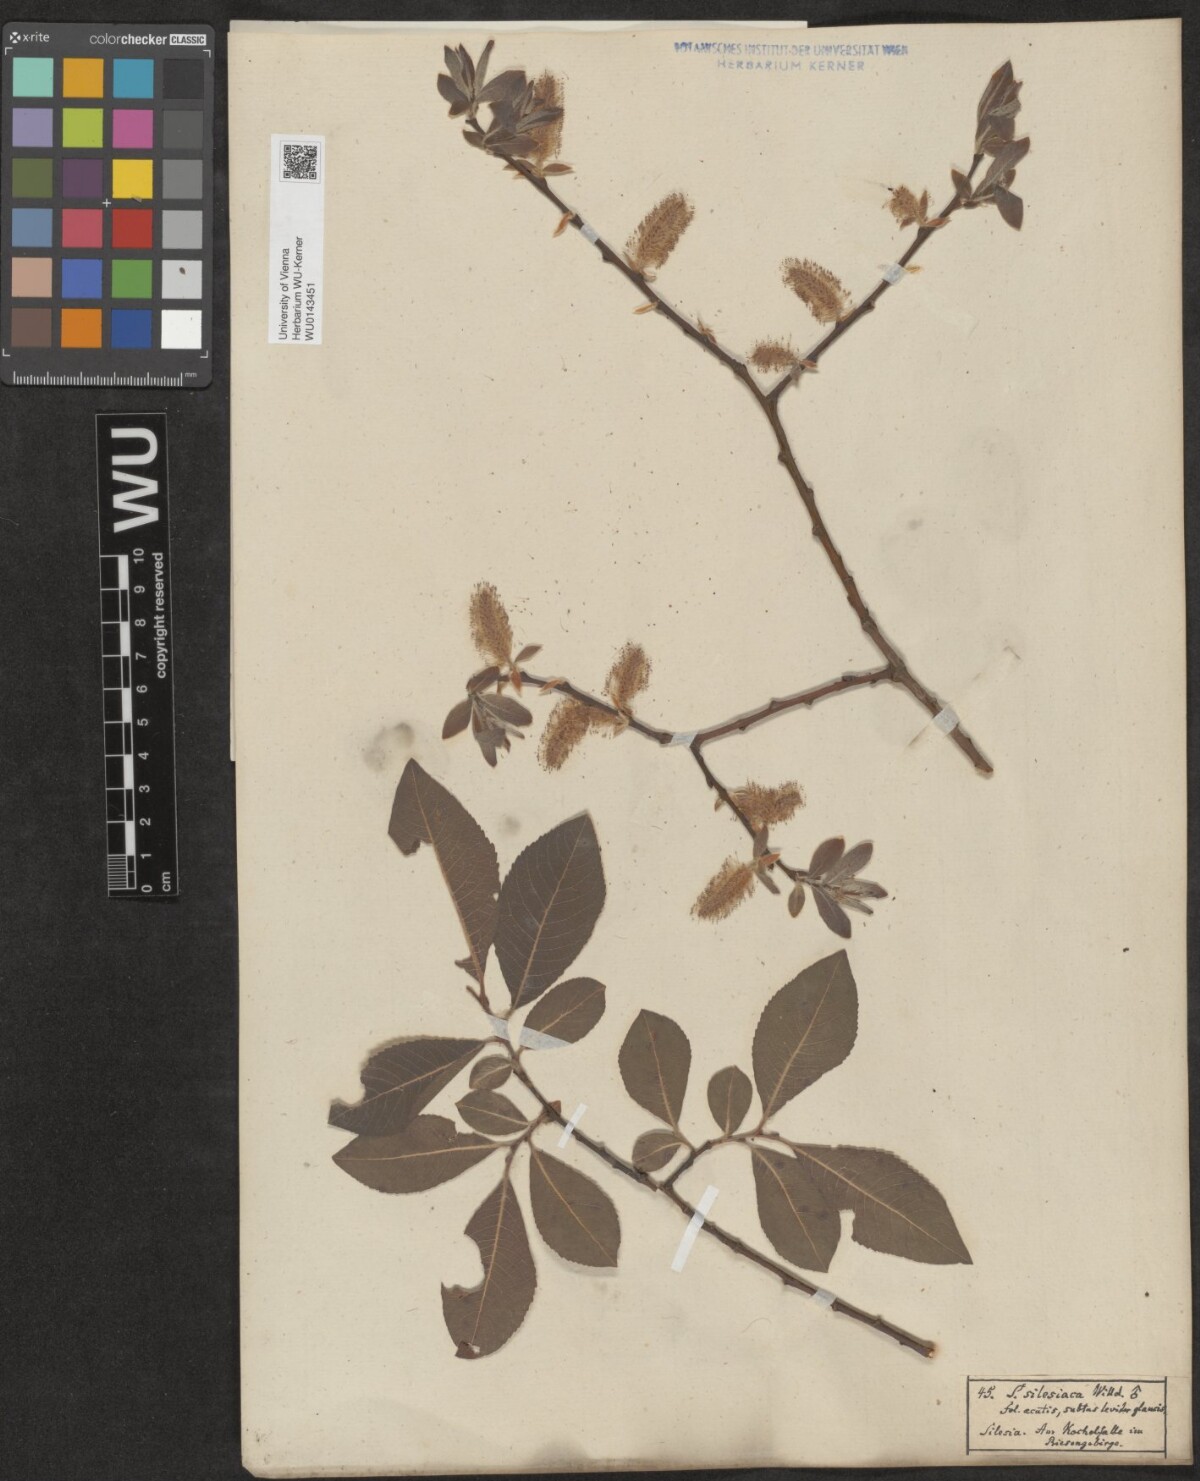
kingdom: Plantae
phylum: Tracheophyta
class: Magnoliopsida
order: Malpighiales
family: Salicaceae
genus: Salix
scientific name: Salix silesiaca
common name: Silesian willow
